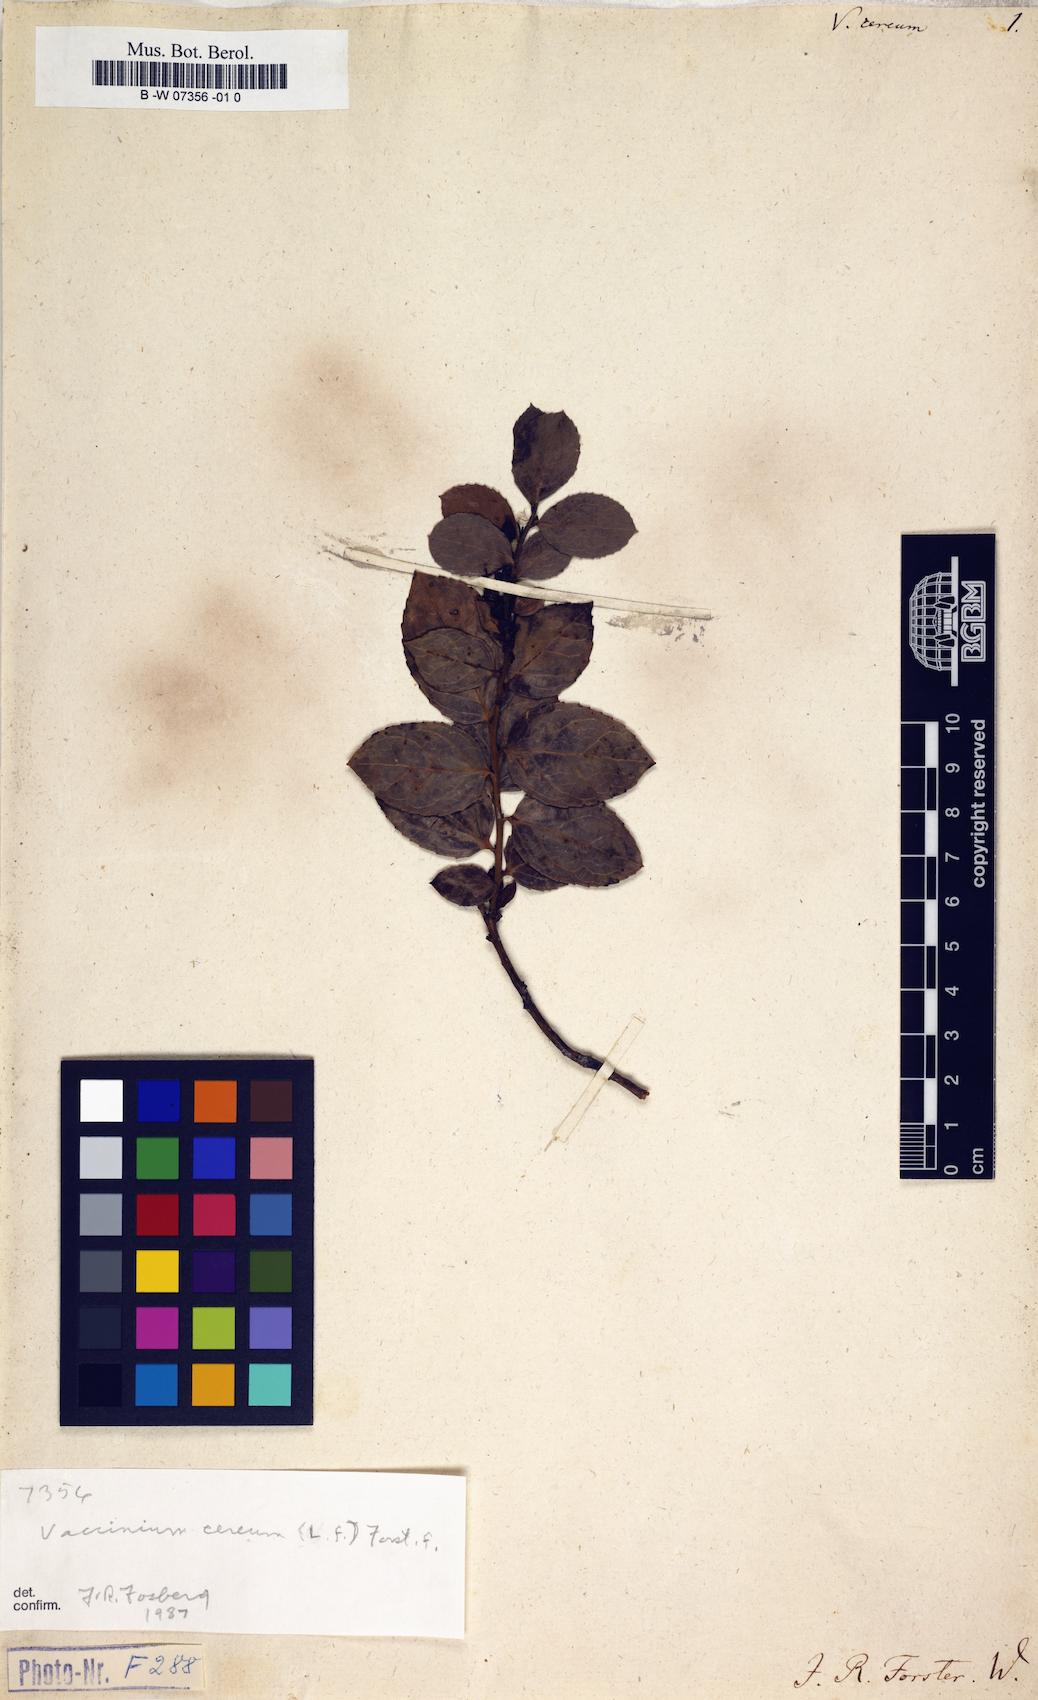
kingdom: Plantae
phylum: Tracheophyta
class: Magnoliopsida
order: Ericales
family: Ericaceae
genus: Vaccinium
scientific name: Vaccinium cereum
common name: East polynesian blueberry
